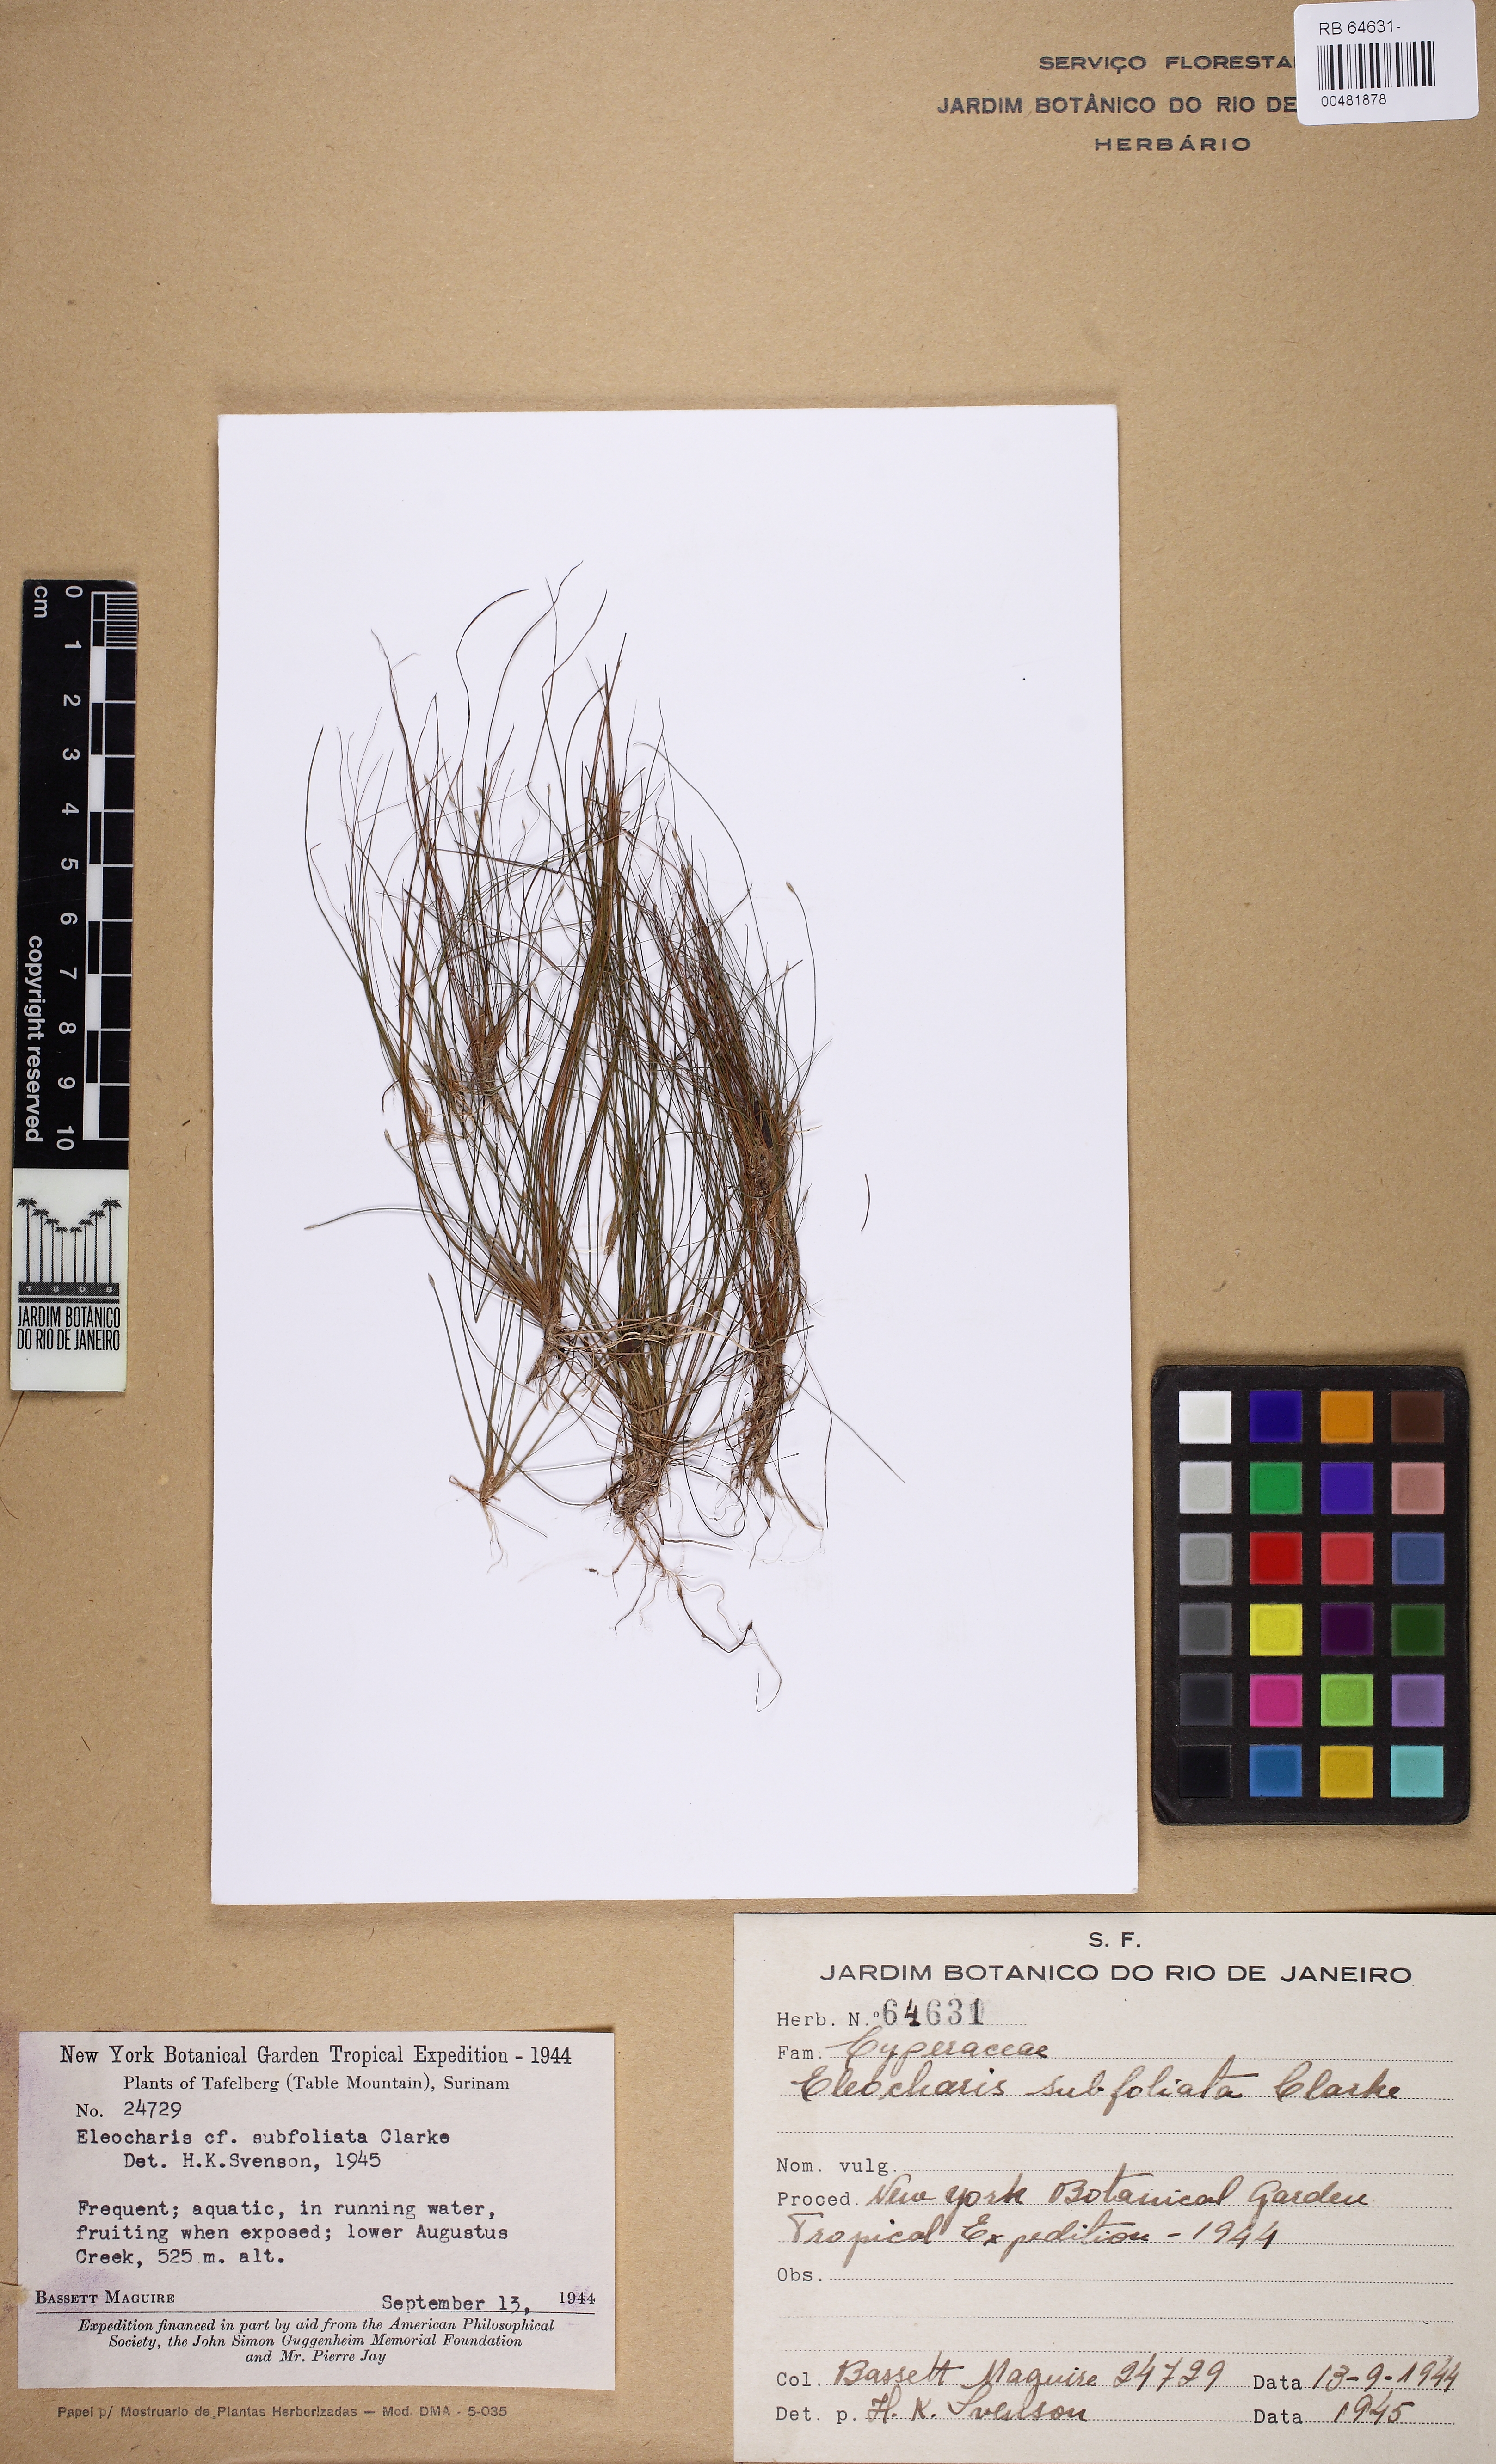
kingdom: Plantae
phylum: Tracheophyta
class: Liliopsida
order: Poales
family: Cyperaceae
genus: Eleocharis
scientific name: Eleocharis subfoliata
